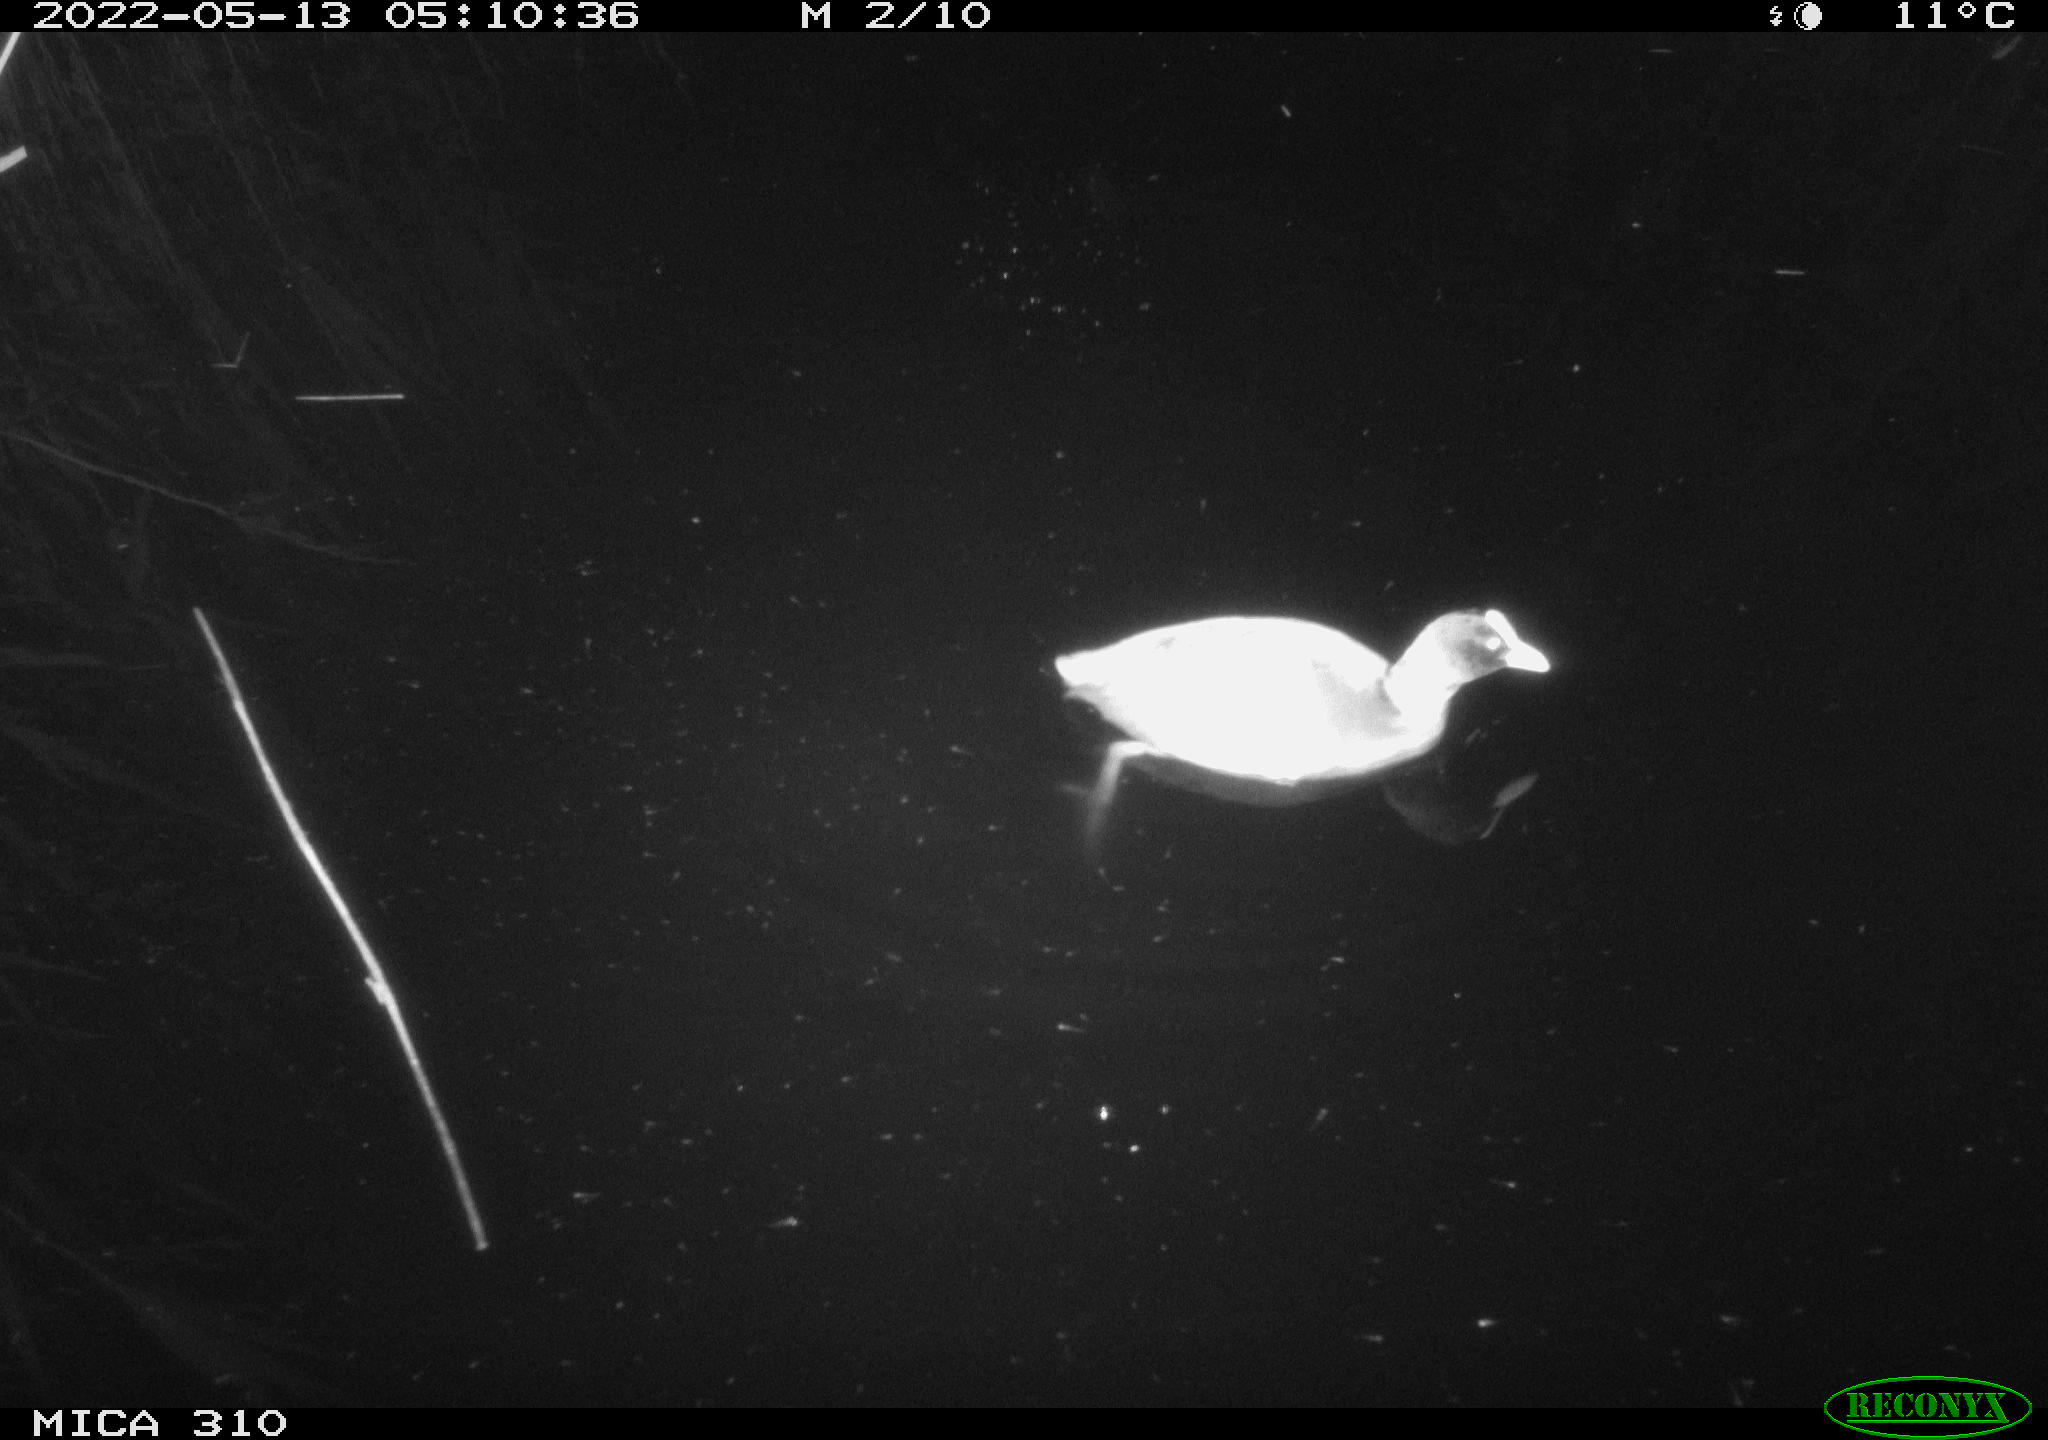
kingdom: Animalia
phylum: Chordata
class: Aves
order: Gruiformes
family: Rallidae
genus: Fulica
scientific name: Fulica atra
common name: Eurasian coot
